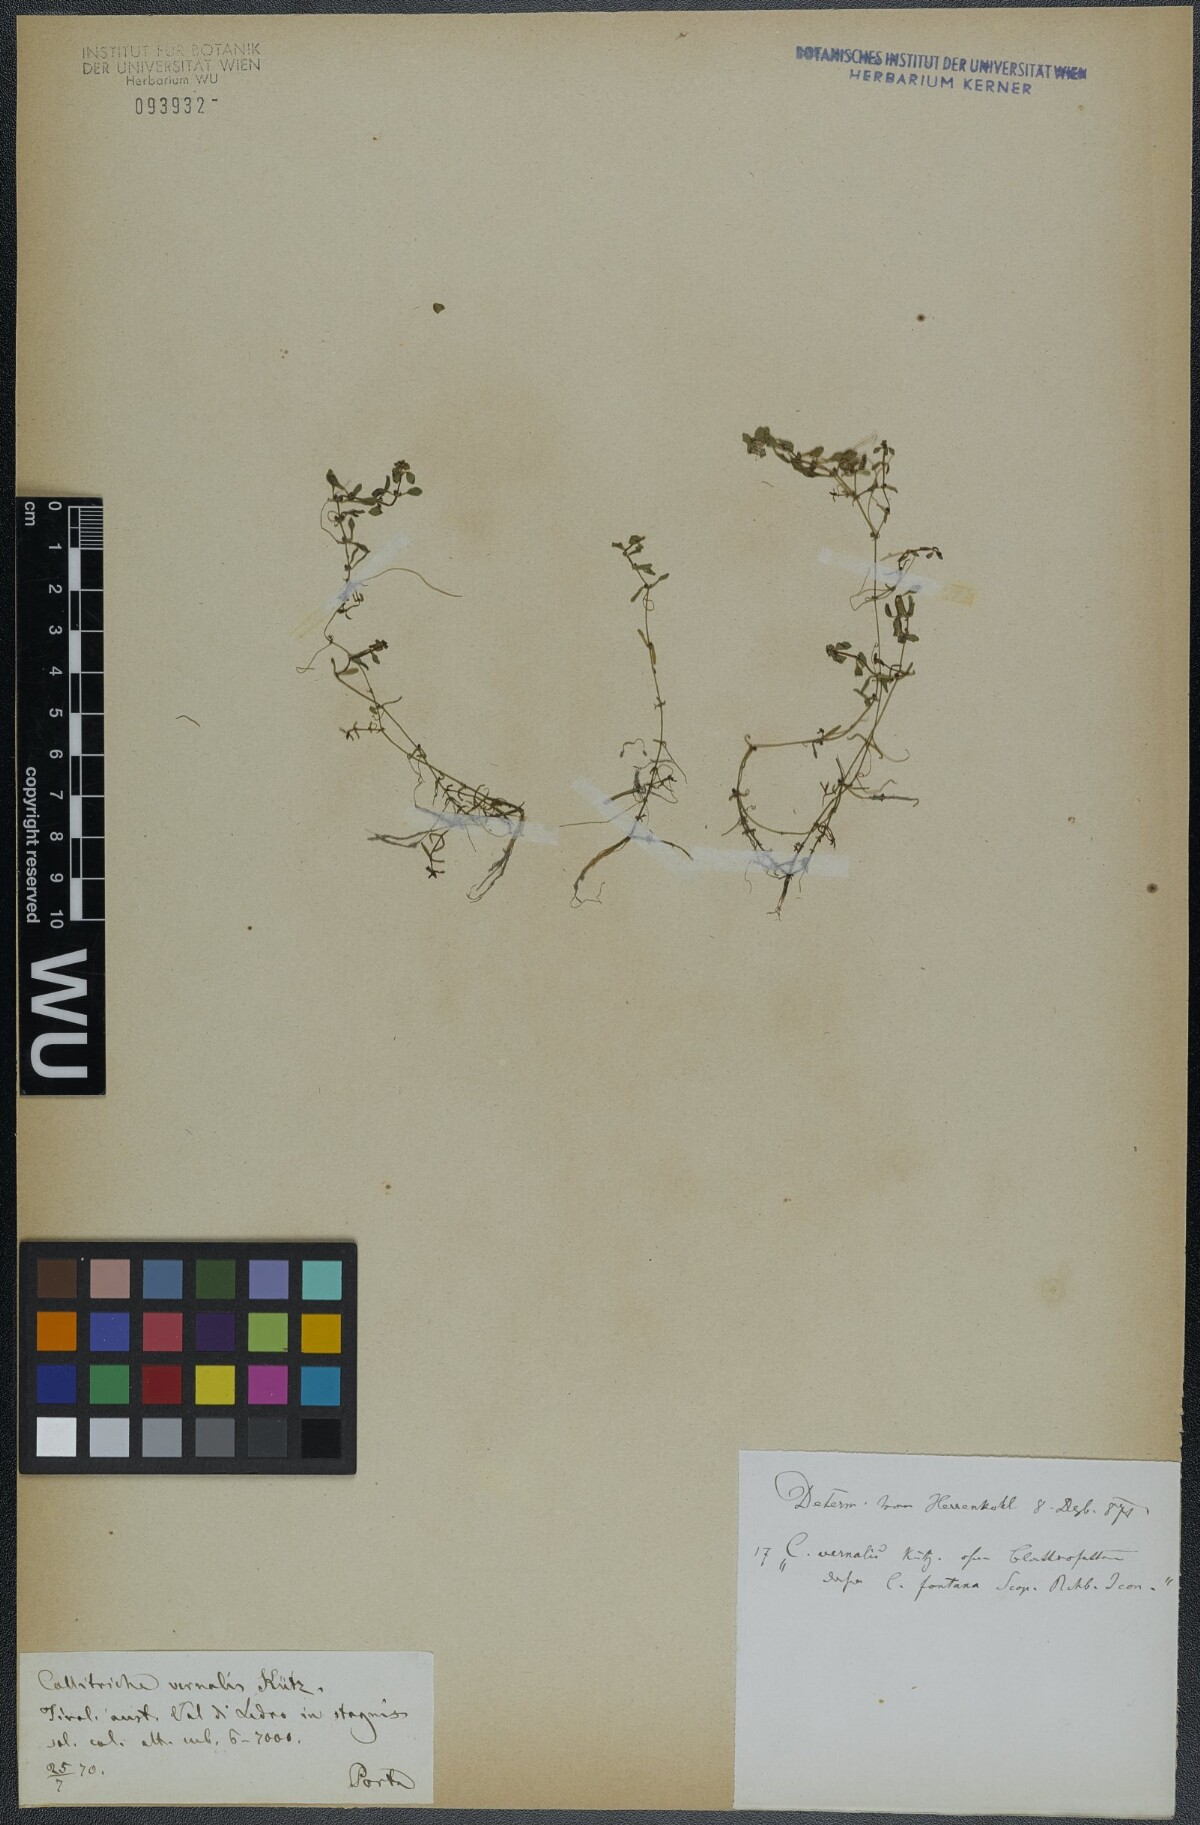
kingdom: Plantae
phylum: Tracheophyta
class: Magnoliopsida
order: Lamiales
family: Plantaginaceae
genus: Callitriche
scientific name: Callitriche palustris
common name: Spring water-starwort
